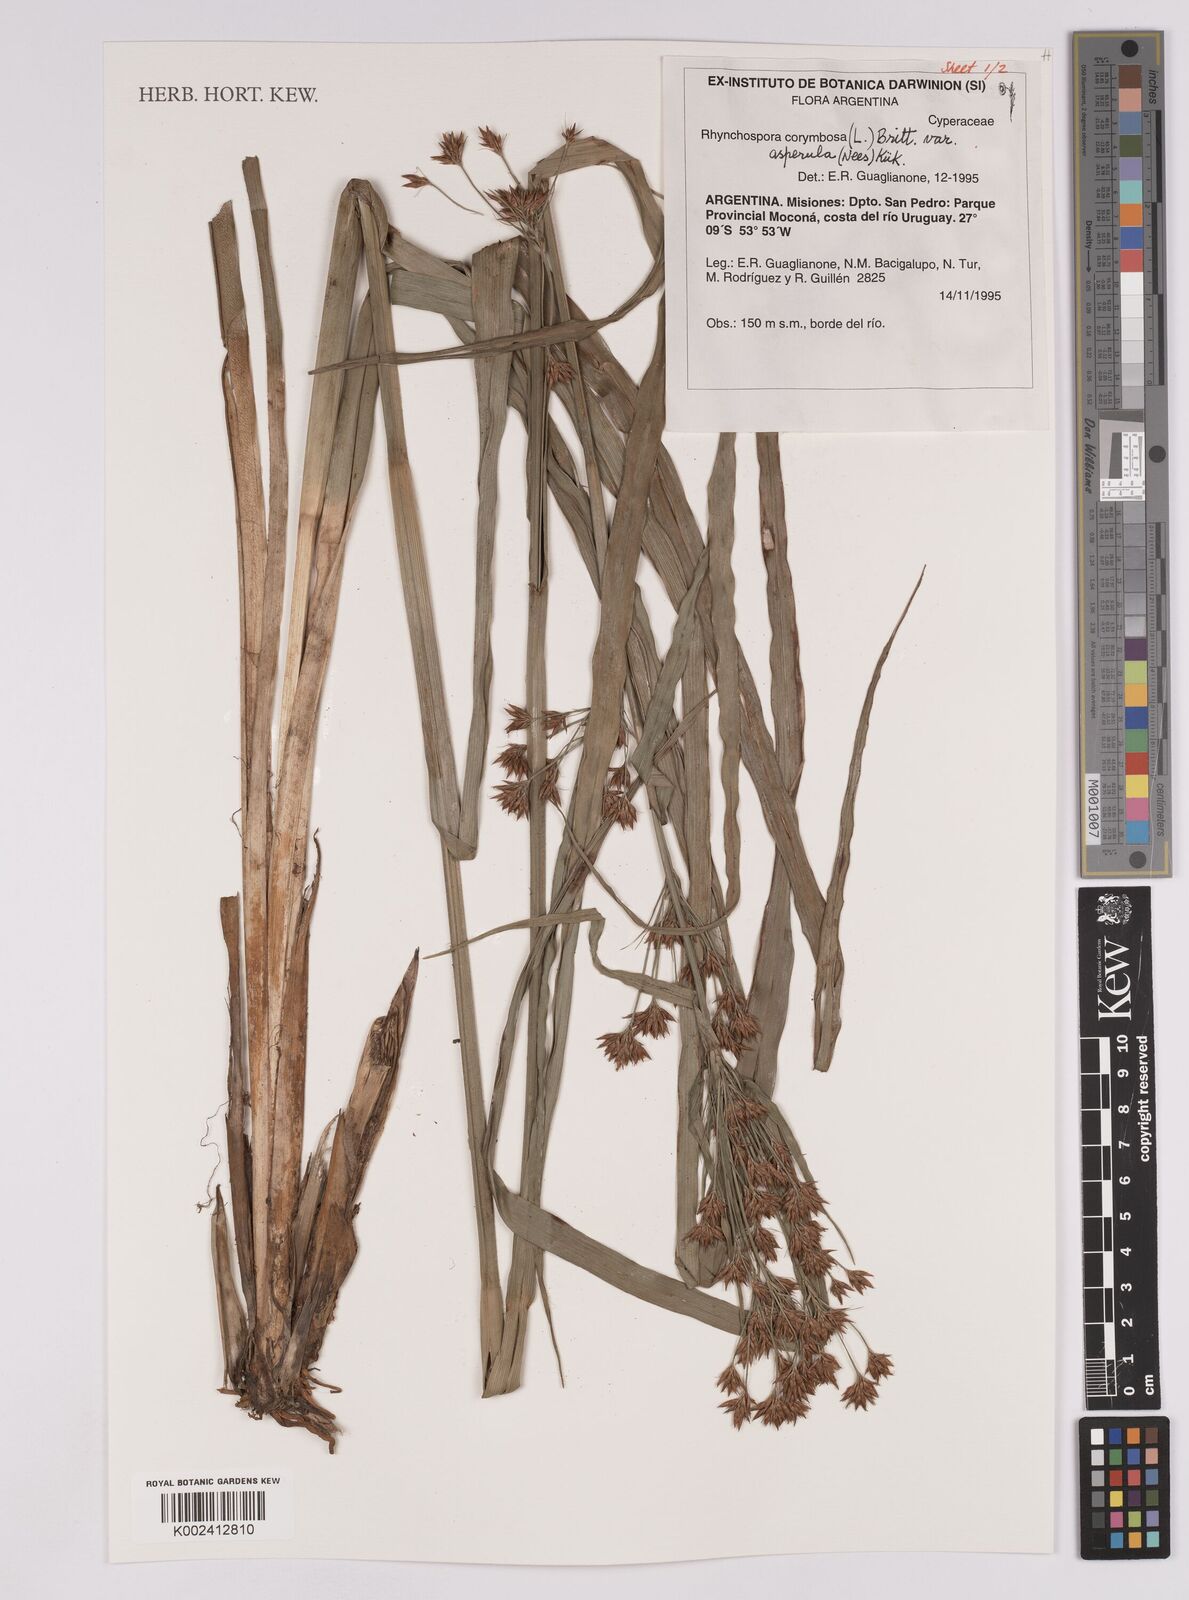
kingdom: Plantae
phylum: Tracheophyta
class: Liliopsida
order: Poales
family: Cyperaceae
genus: Rhynchospora
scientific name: Rhynchospora corymbosa
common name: Golden beak sedge
